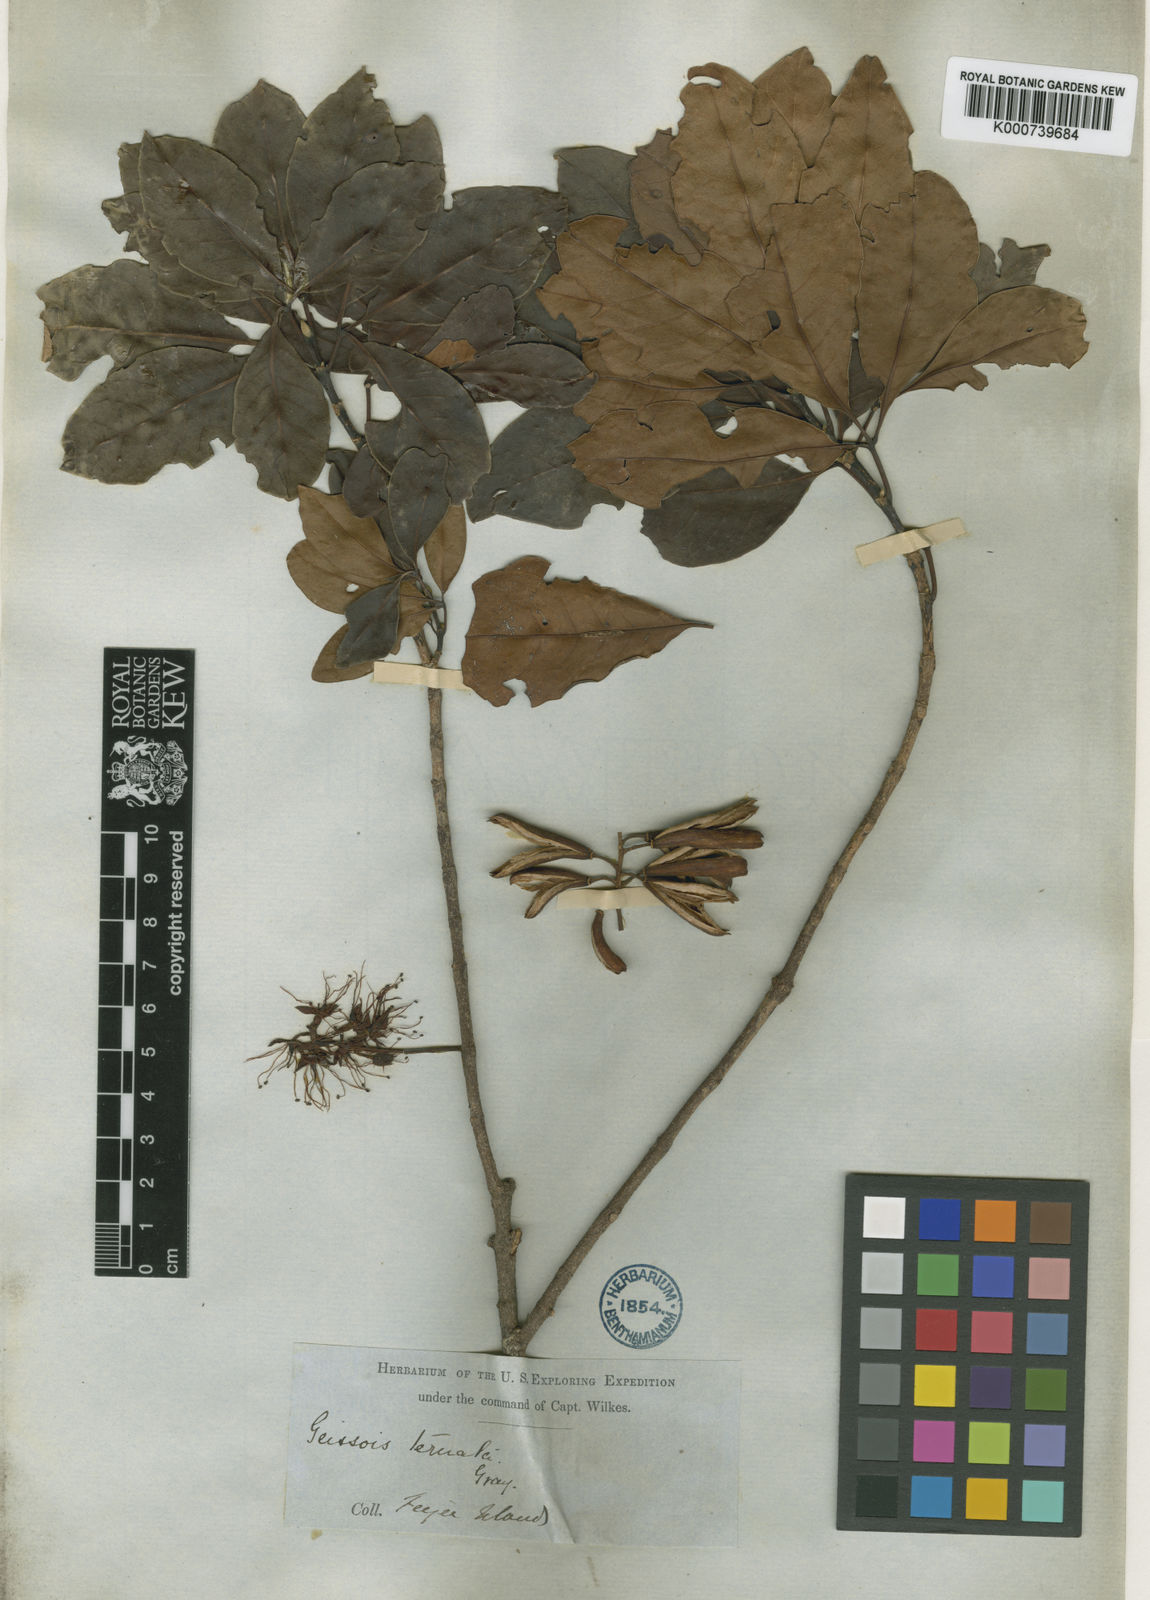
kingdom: Plantae
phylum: Tracheophyta
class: Magnoliopsida
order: Oxalidales
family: Cunoniaceae
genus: Geissois
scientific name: Geissois ternata
